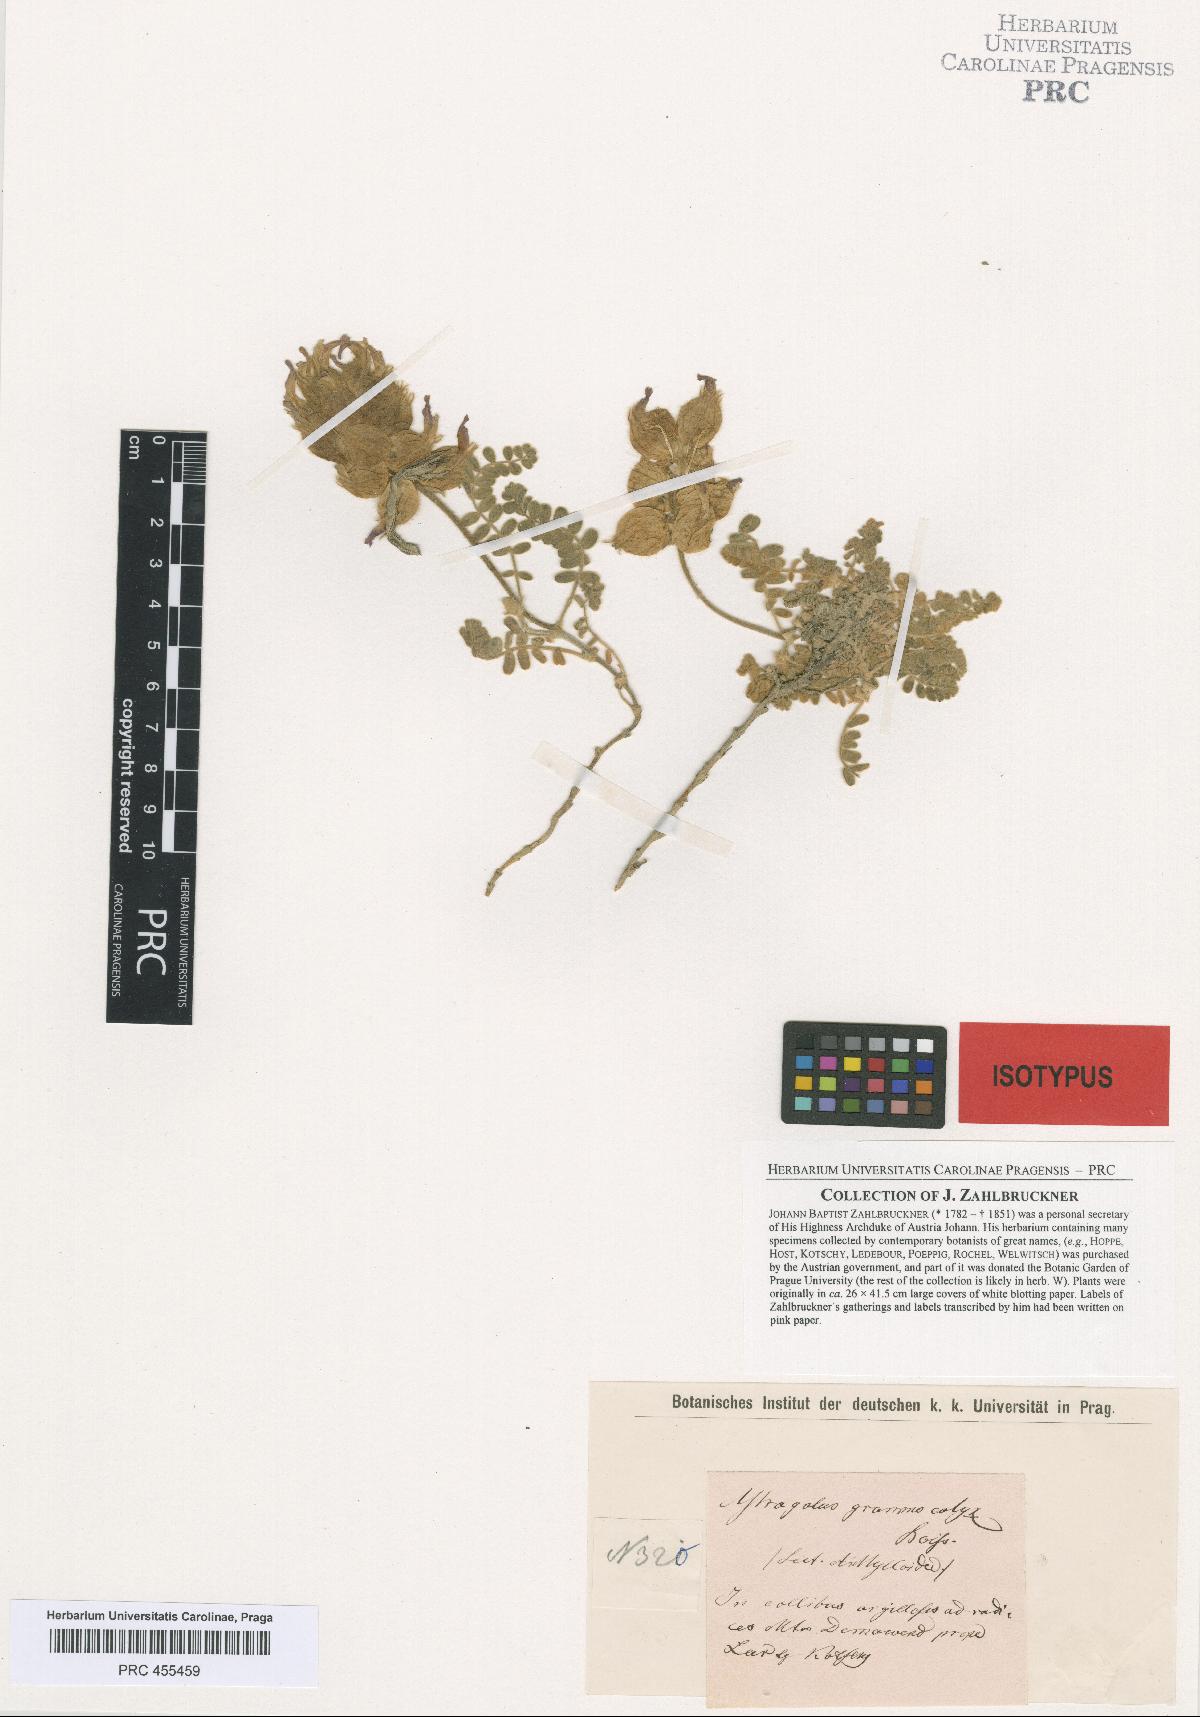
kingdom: Plantae
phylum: Tracheophyta
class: Magnoliopsida
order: Fabales
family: Fabaceae
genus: Astragalus
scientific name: Astragalus lineatus
